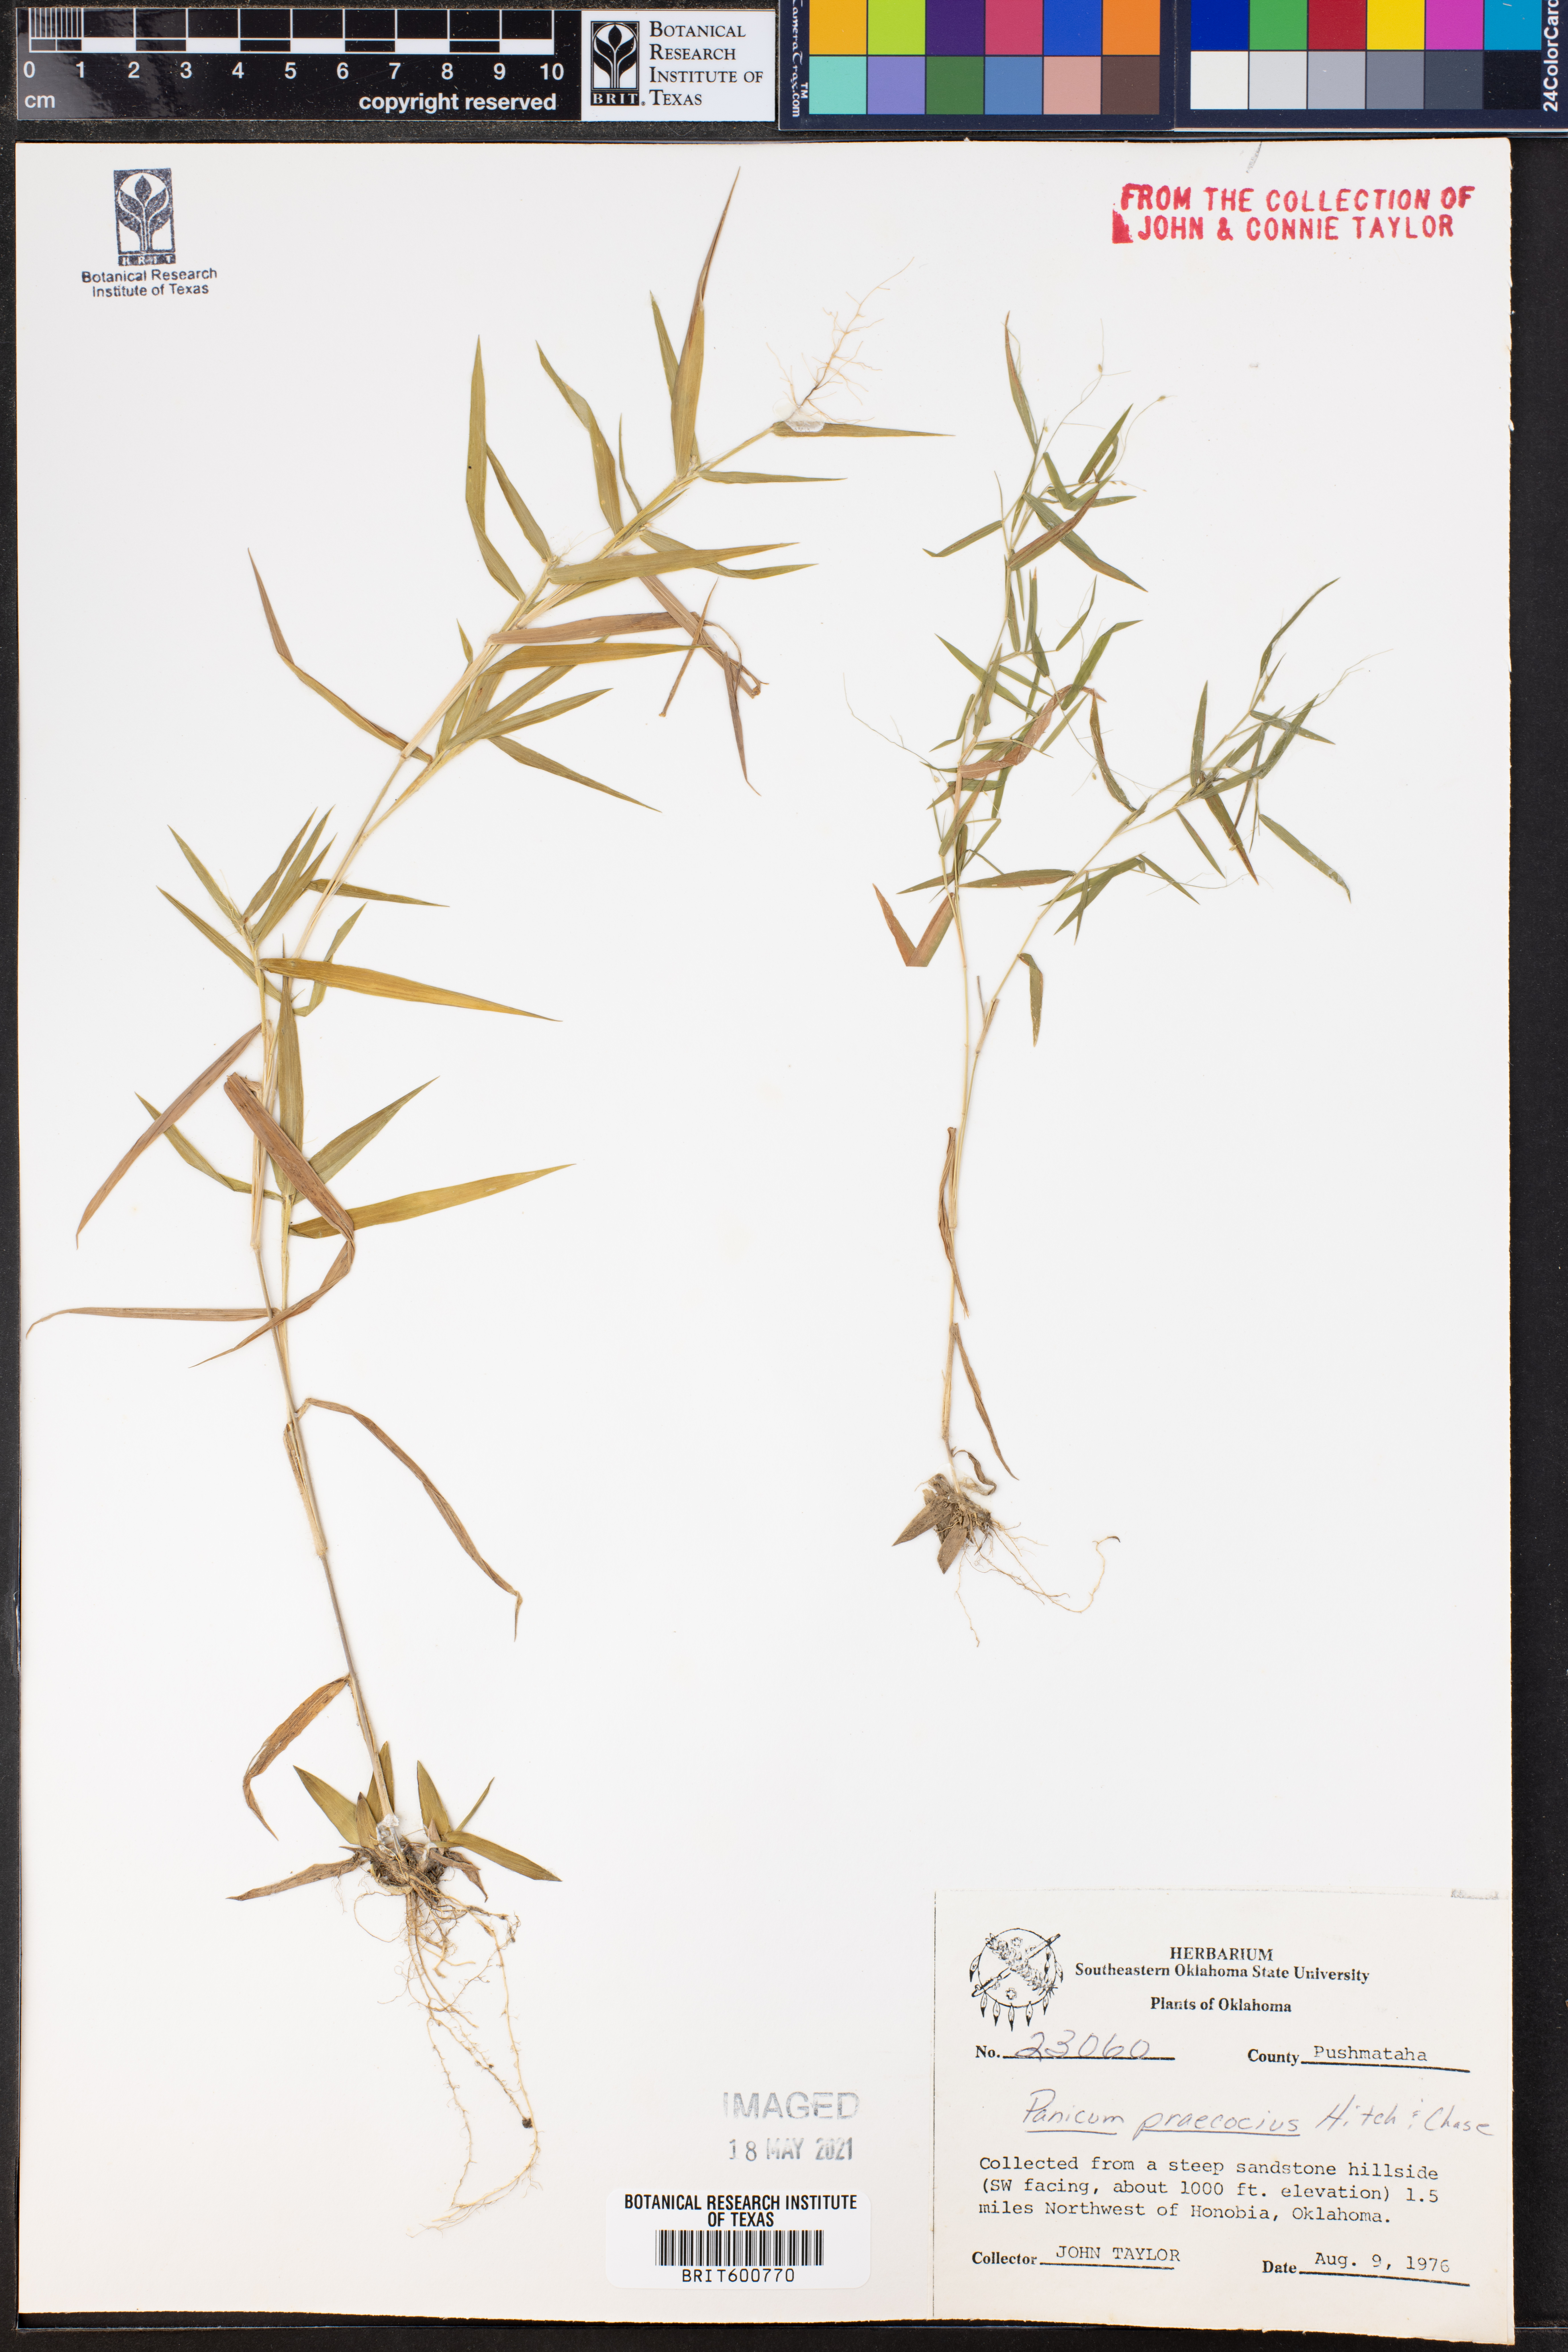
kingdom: Plantae
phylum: Tracheophyta
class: Liliopsida
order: Poales
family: Poaceae
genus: Dichanthelium
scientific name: Dichanthelium praecocius
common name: Early-branching panicgrass
